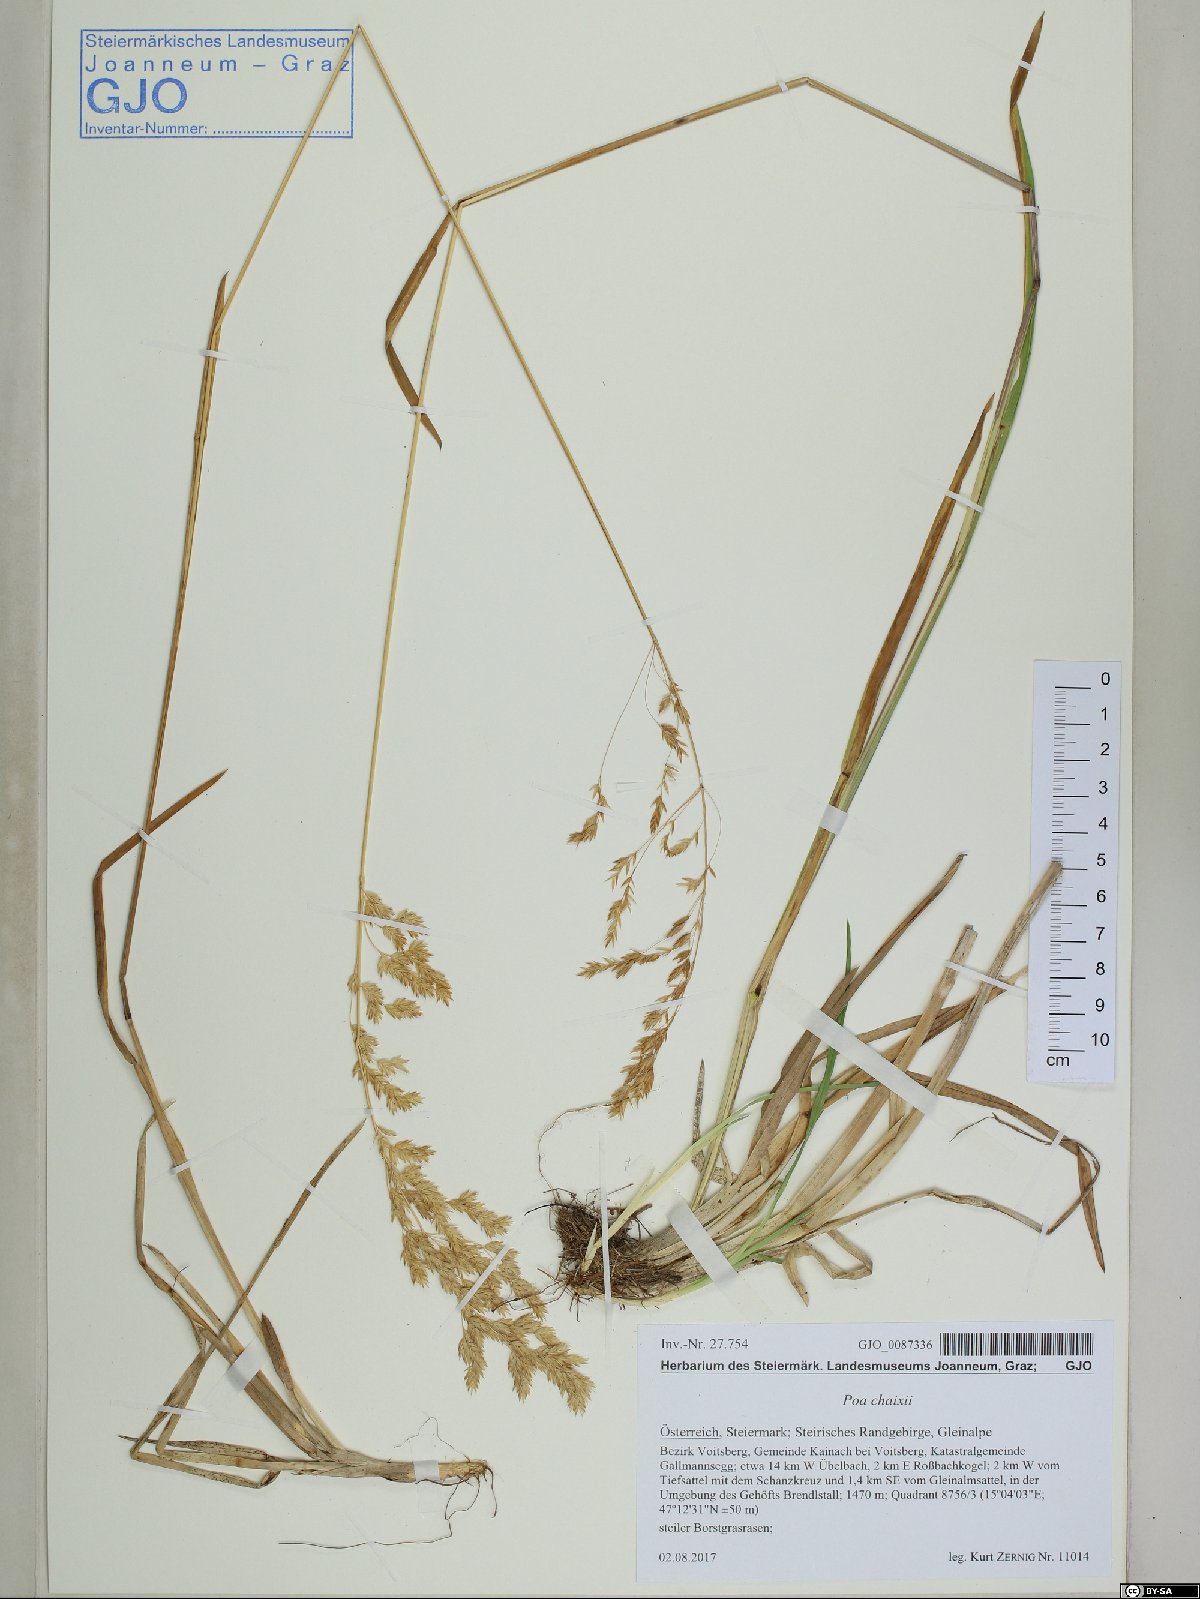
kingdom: Plantae
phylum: Tracheophyta
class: Liliopsida
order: Poales
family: Poaceae
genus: Poa
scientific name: Poa chaixii
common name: Broad-leaved meadow-grass
